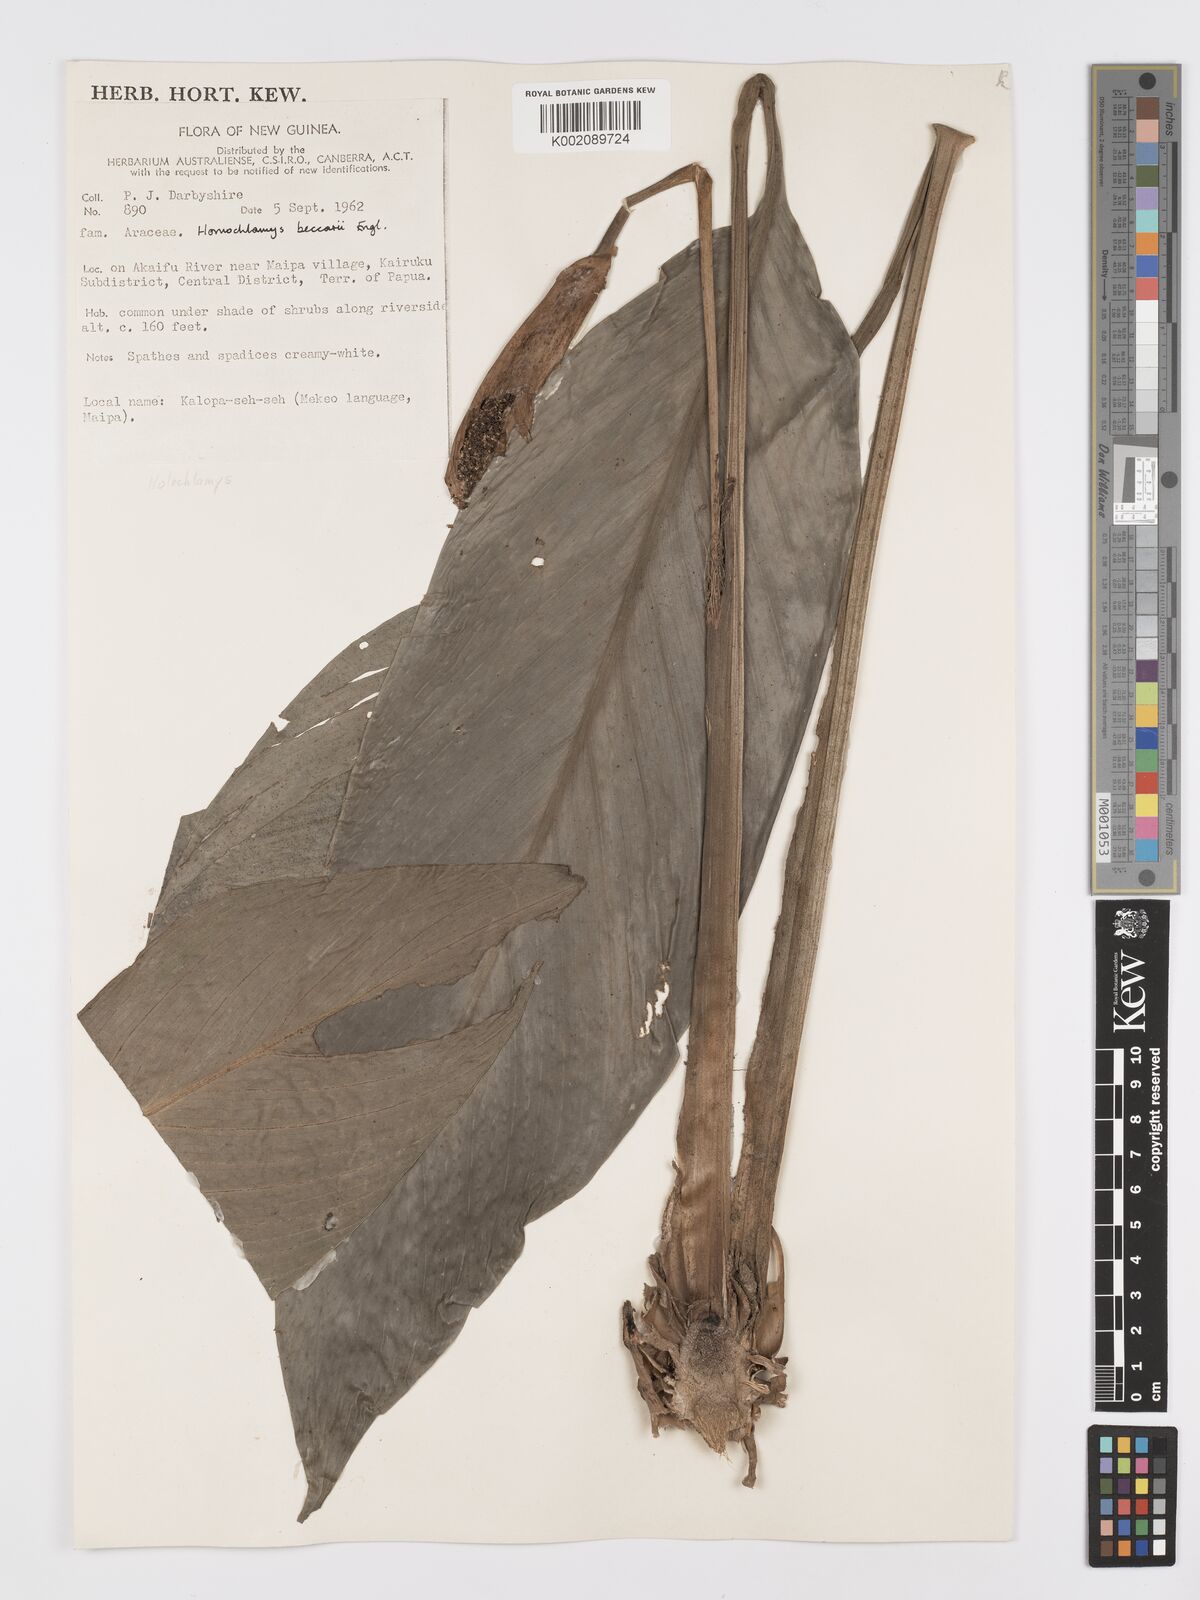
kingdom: Plantae
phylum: Tracheophyta
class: Liliopsida
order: Alismatales
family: Araceae
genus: Holochlamys
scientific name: Holochlamys beccarii
